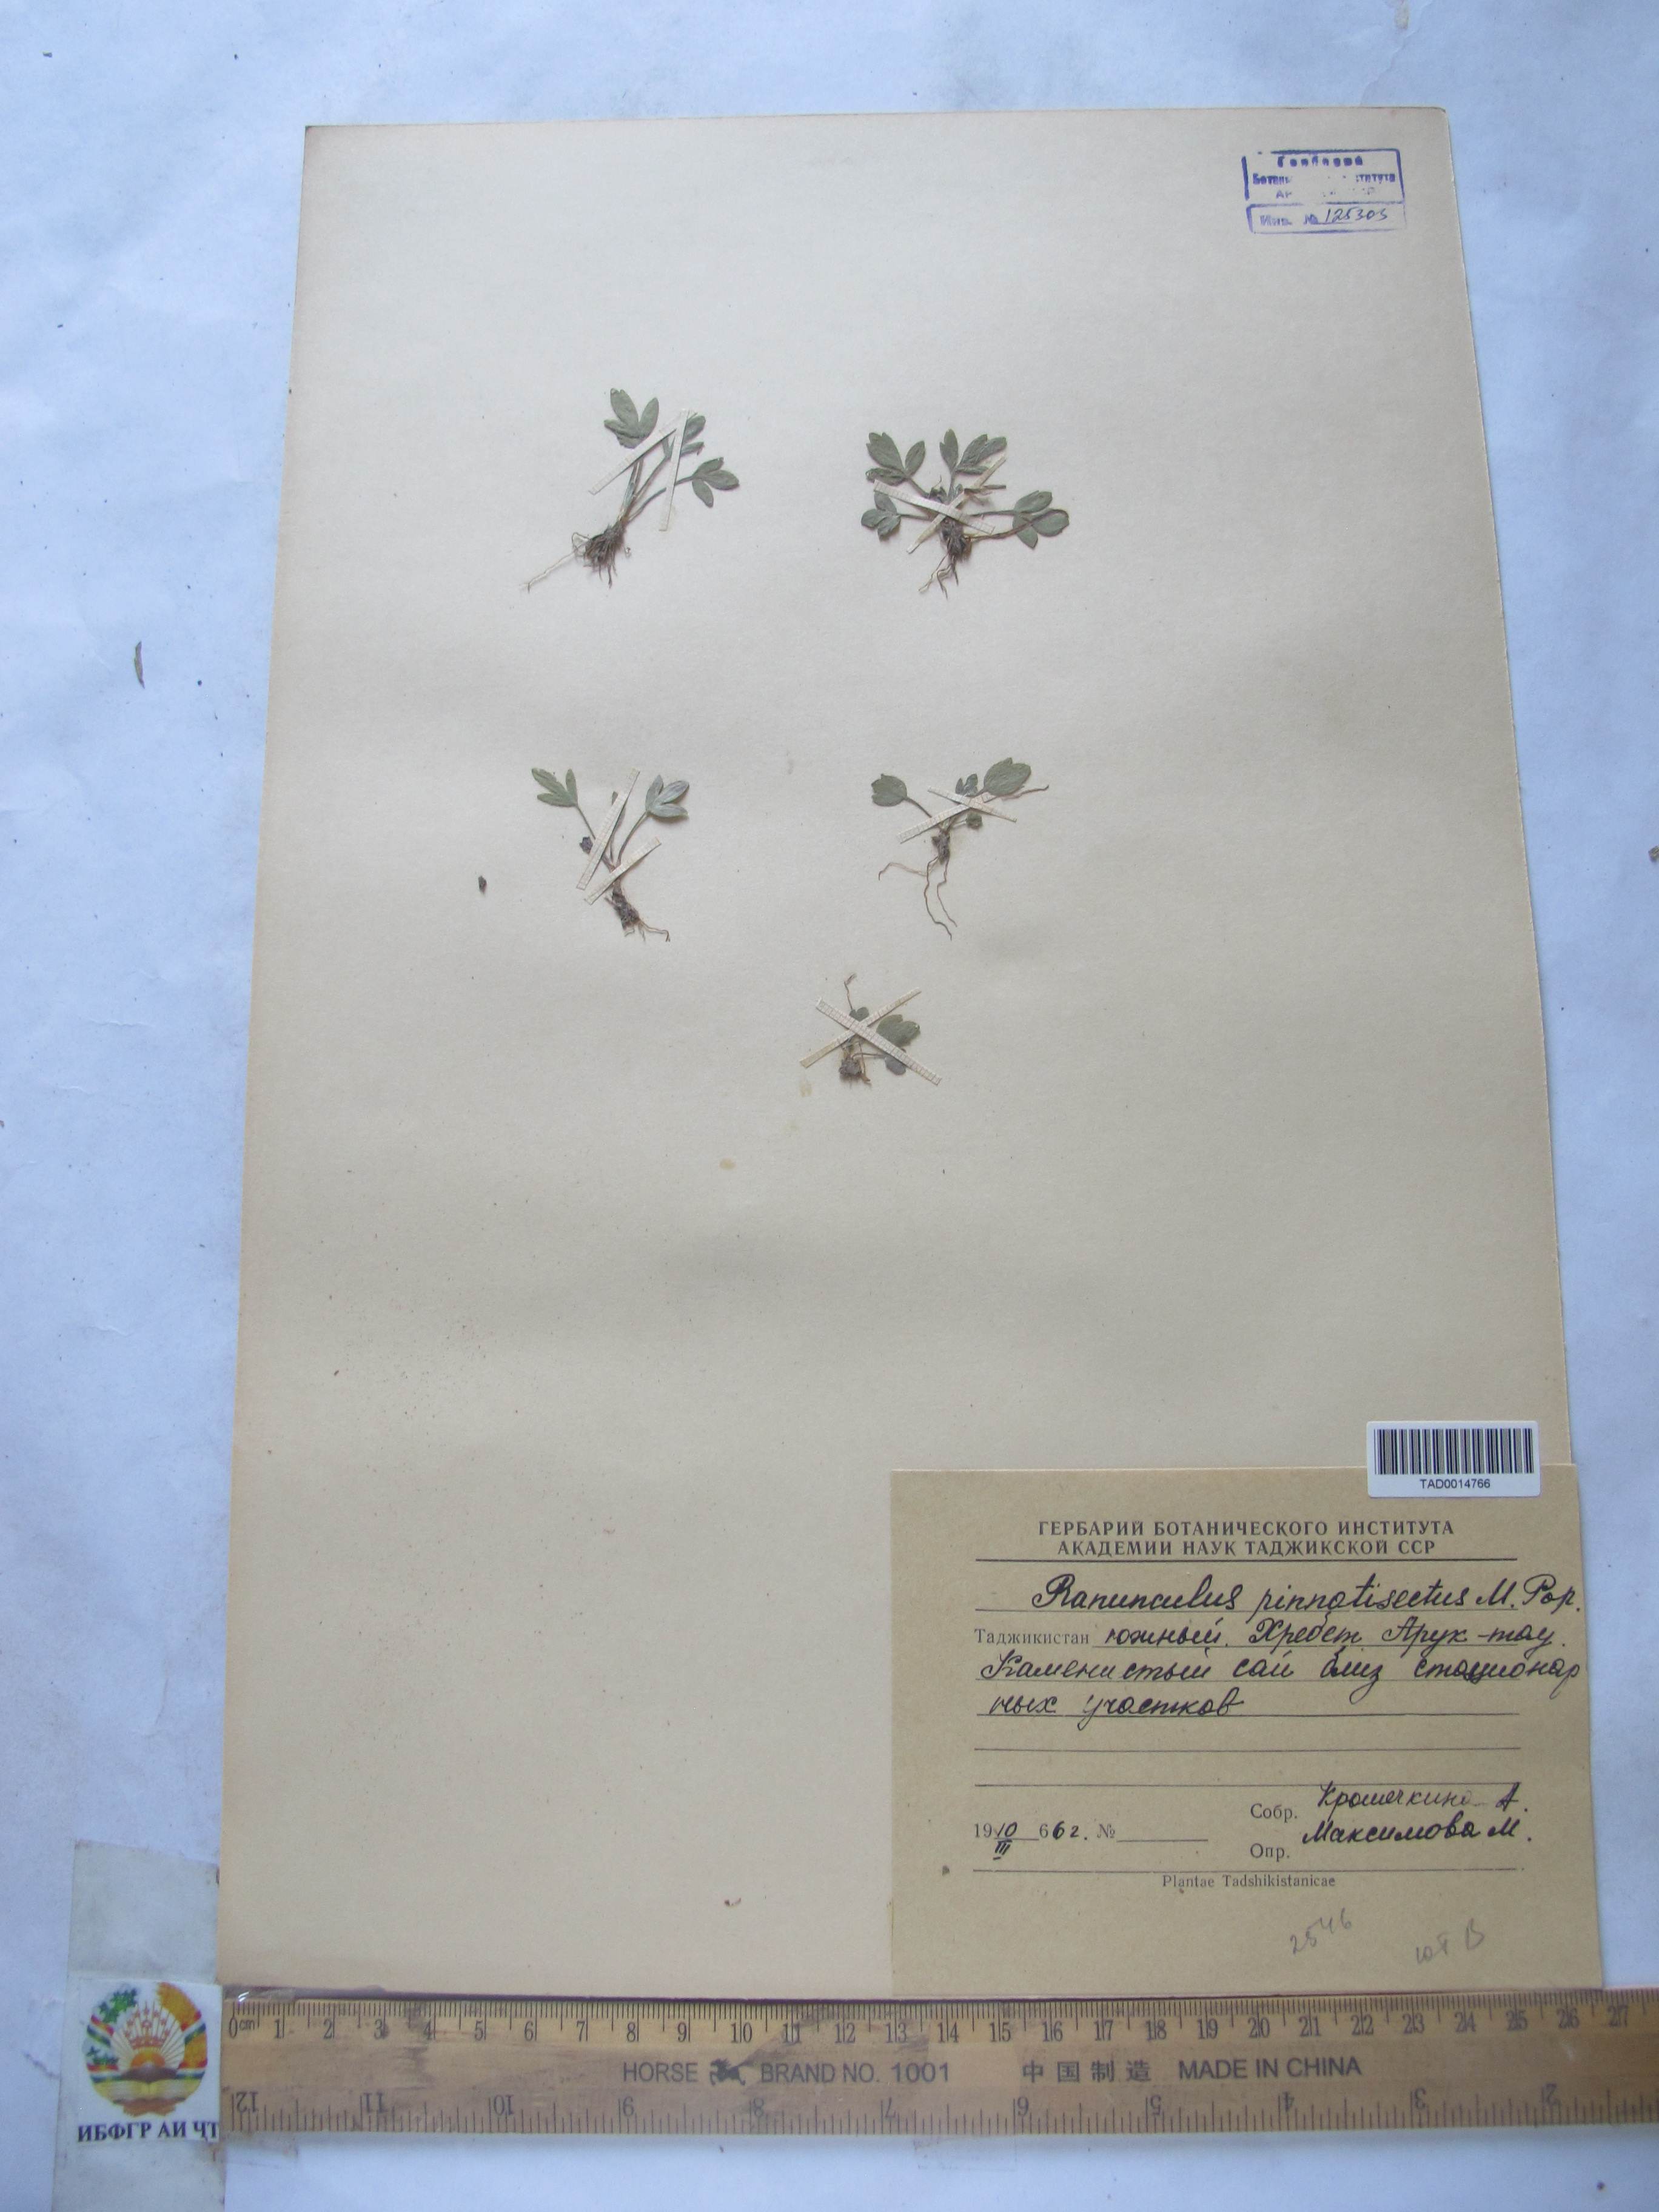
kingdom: Plantae
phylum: Tracheophyta
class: Magnoliopsida
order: Ranunculales
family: Ranunculaceae
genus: Ranunculus
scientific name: Ranunculus pinnatisectus
